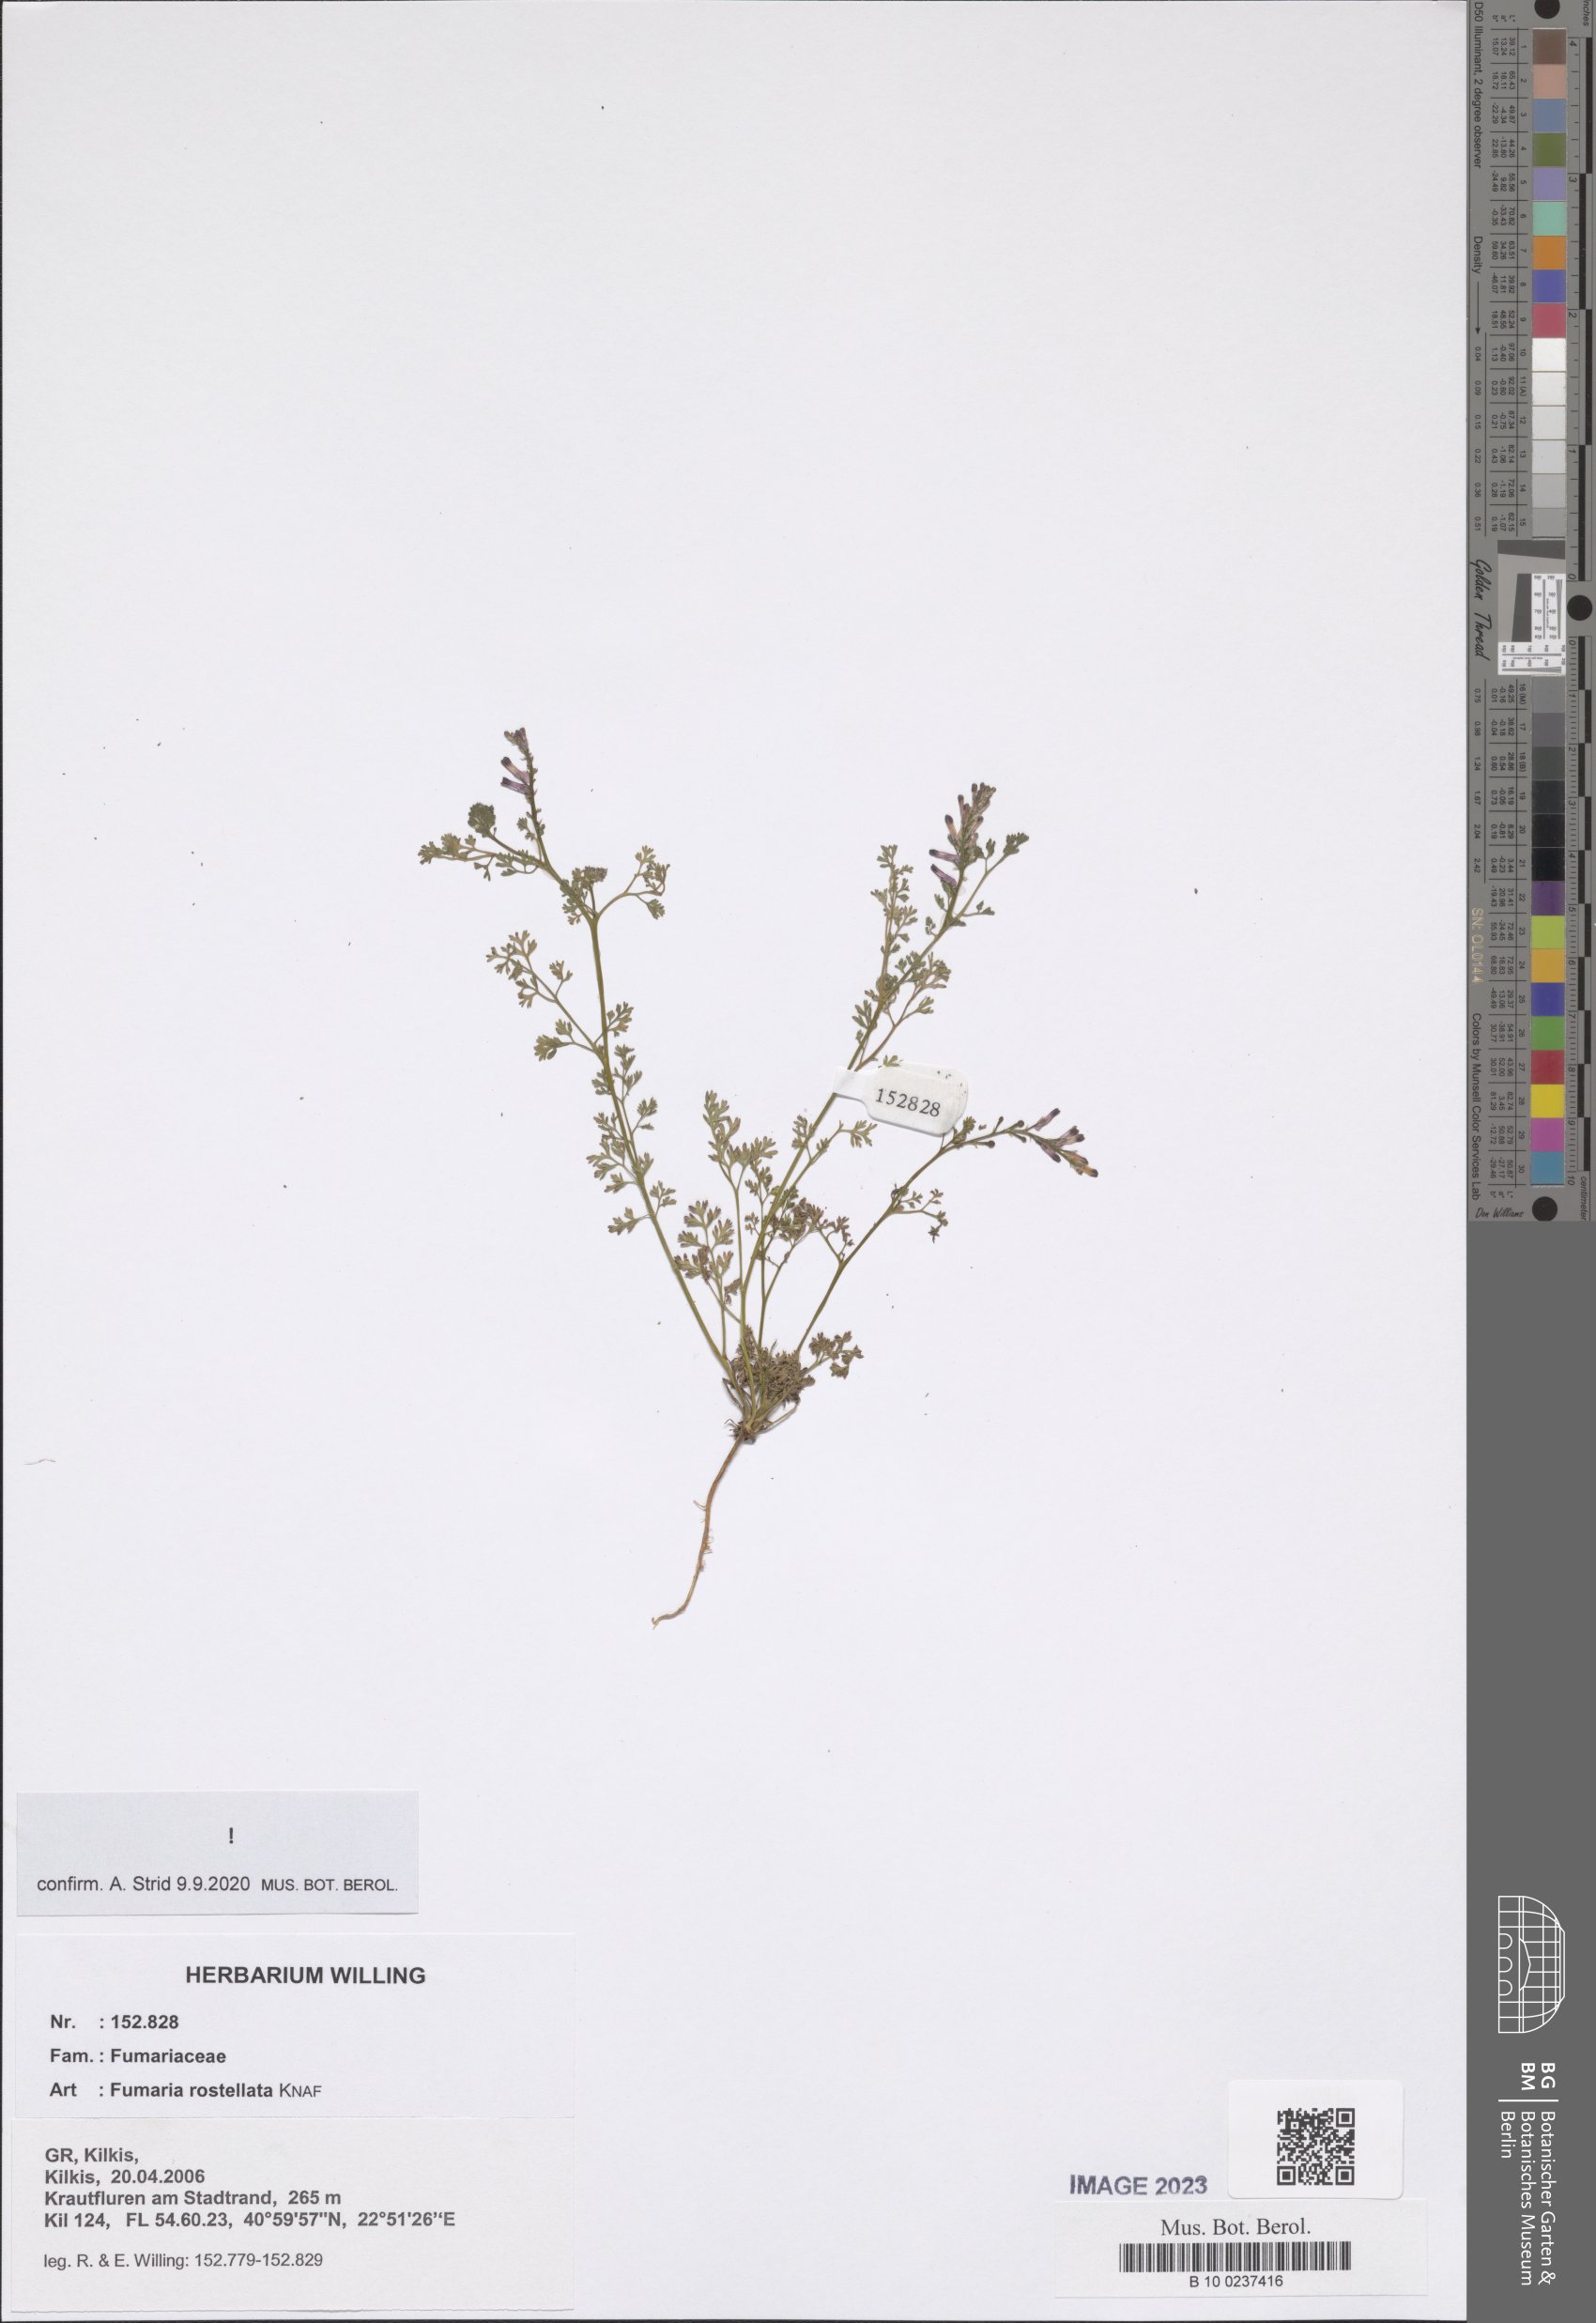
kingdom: Plantae
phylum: Tracheophyta
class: Magnoliopsida
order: Ranunculales
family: Papaveraceae
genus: Fumaria
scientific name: Fumaria rostellata
